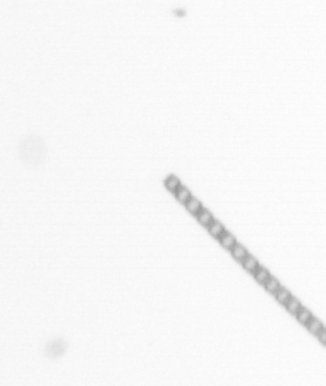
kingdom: Chromista
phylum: Ochrophyta
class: Bacillariophyceae
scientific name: Bacillariophyceae
